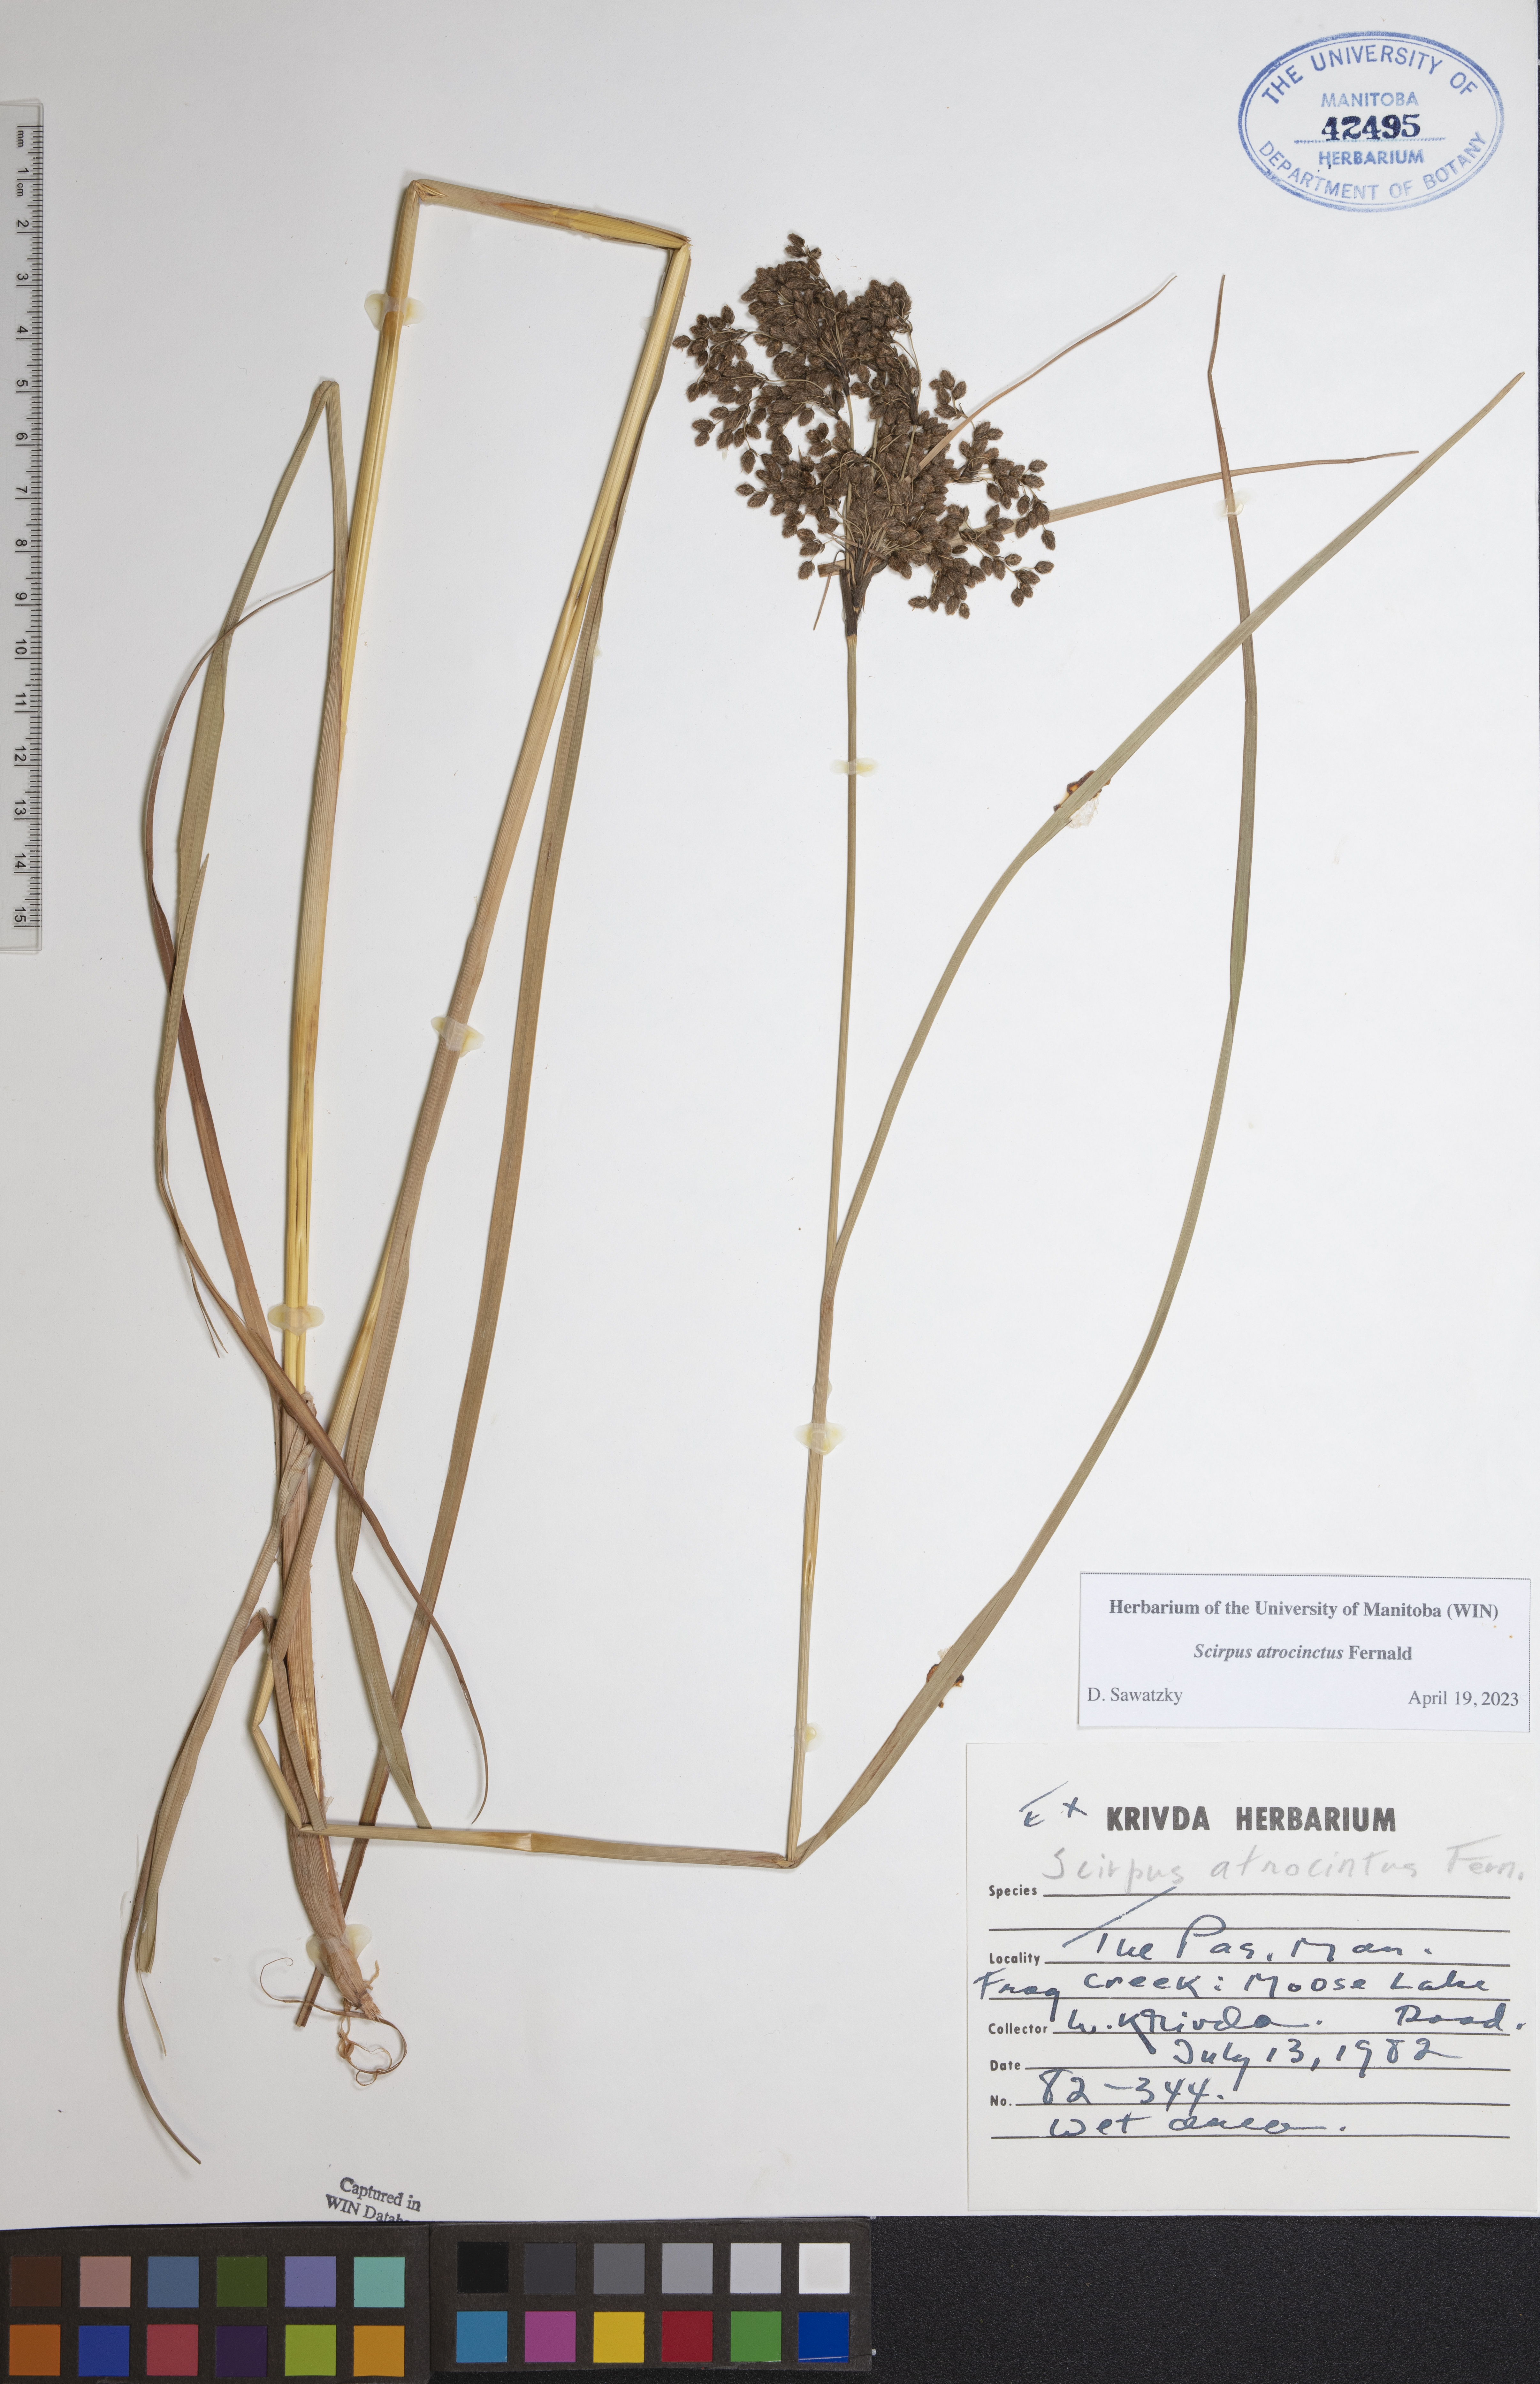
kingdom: Plantae
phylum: Tracheophyta
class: Liliopsida
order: Poales
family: Cyperaceae
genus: Scirpus
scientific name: Scirpus atrocinctus
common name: Black-girdled bulrush
